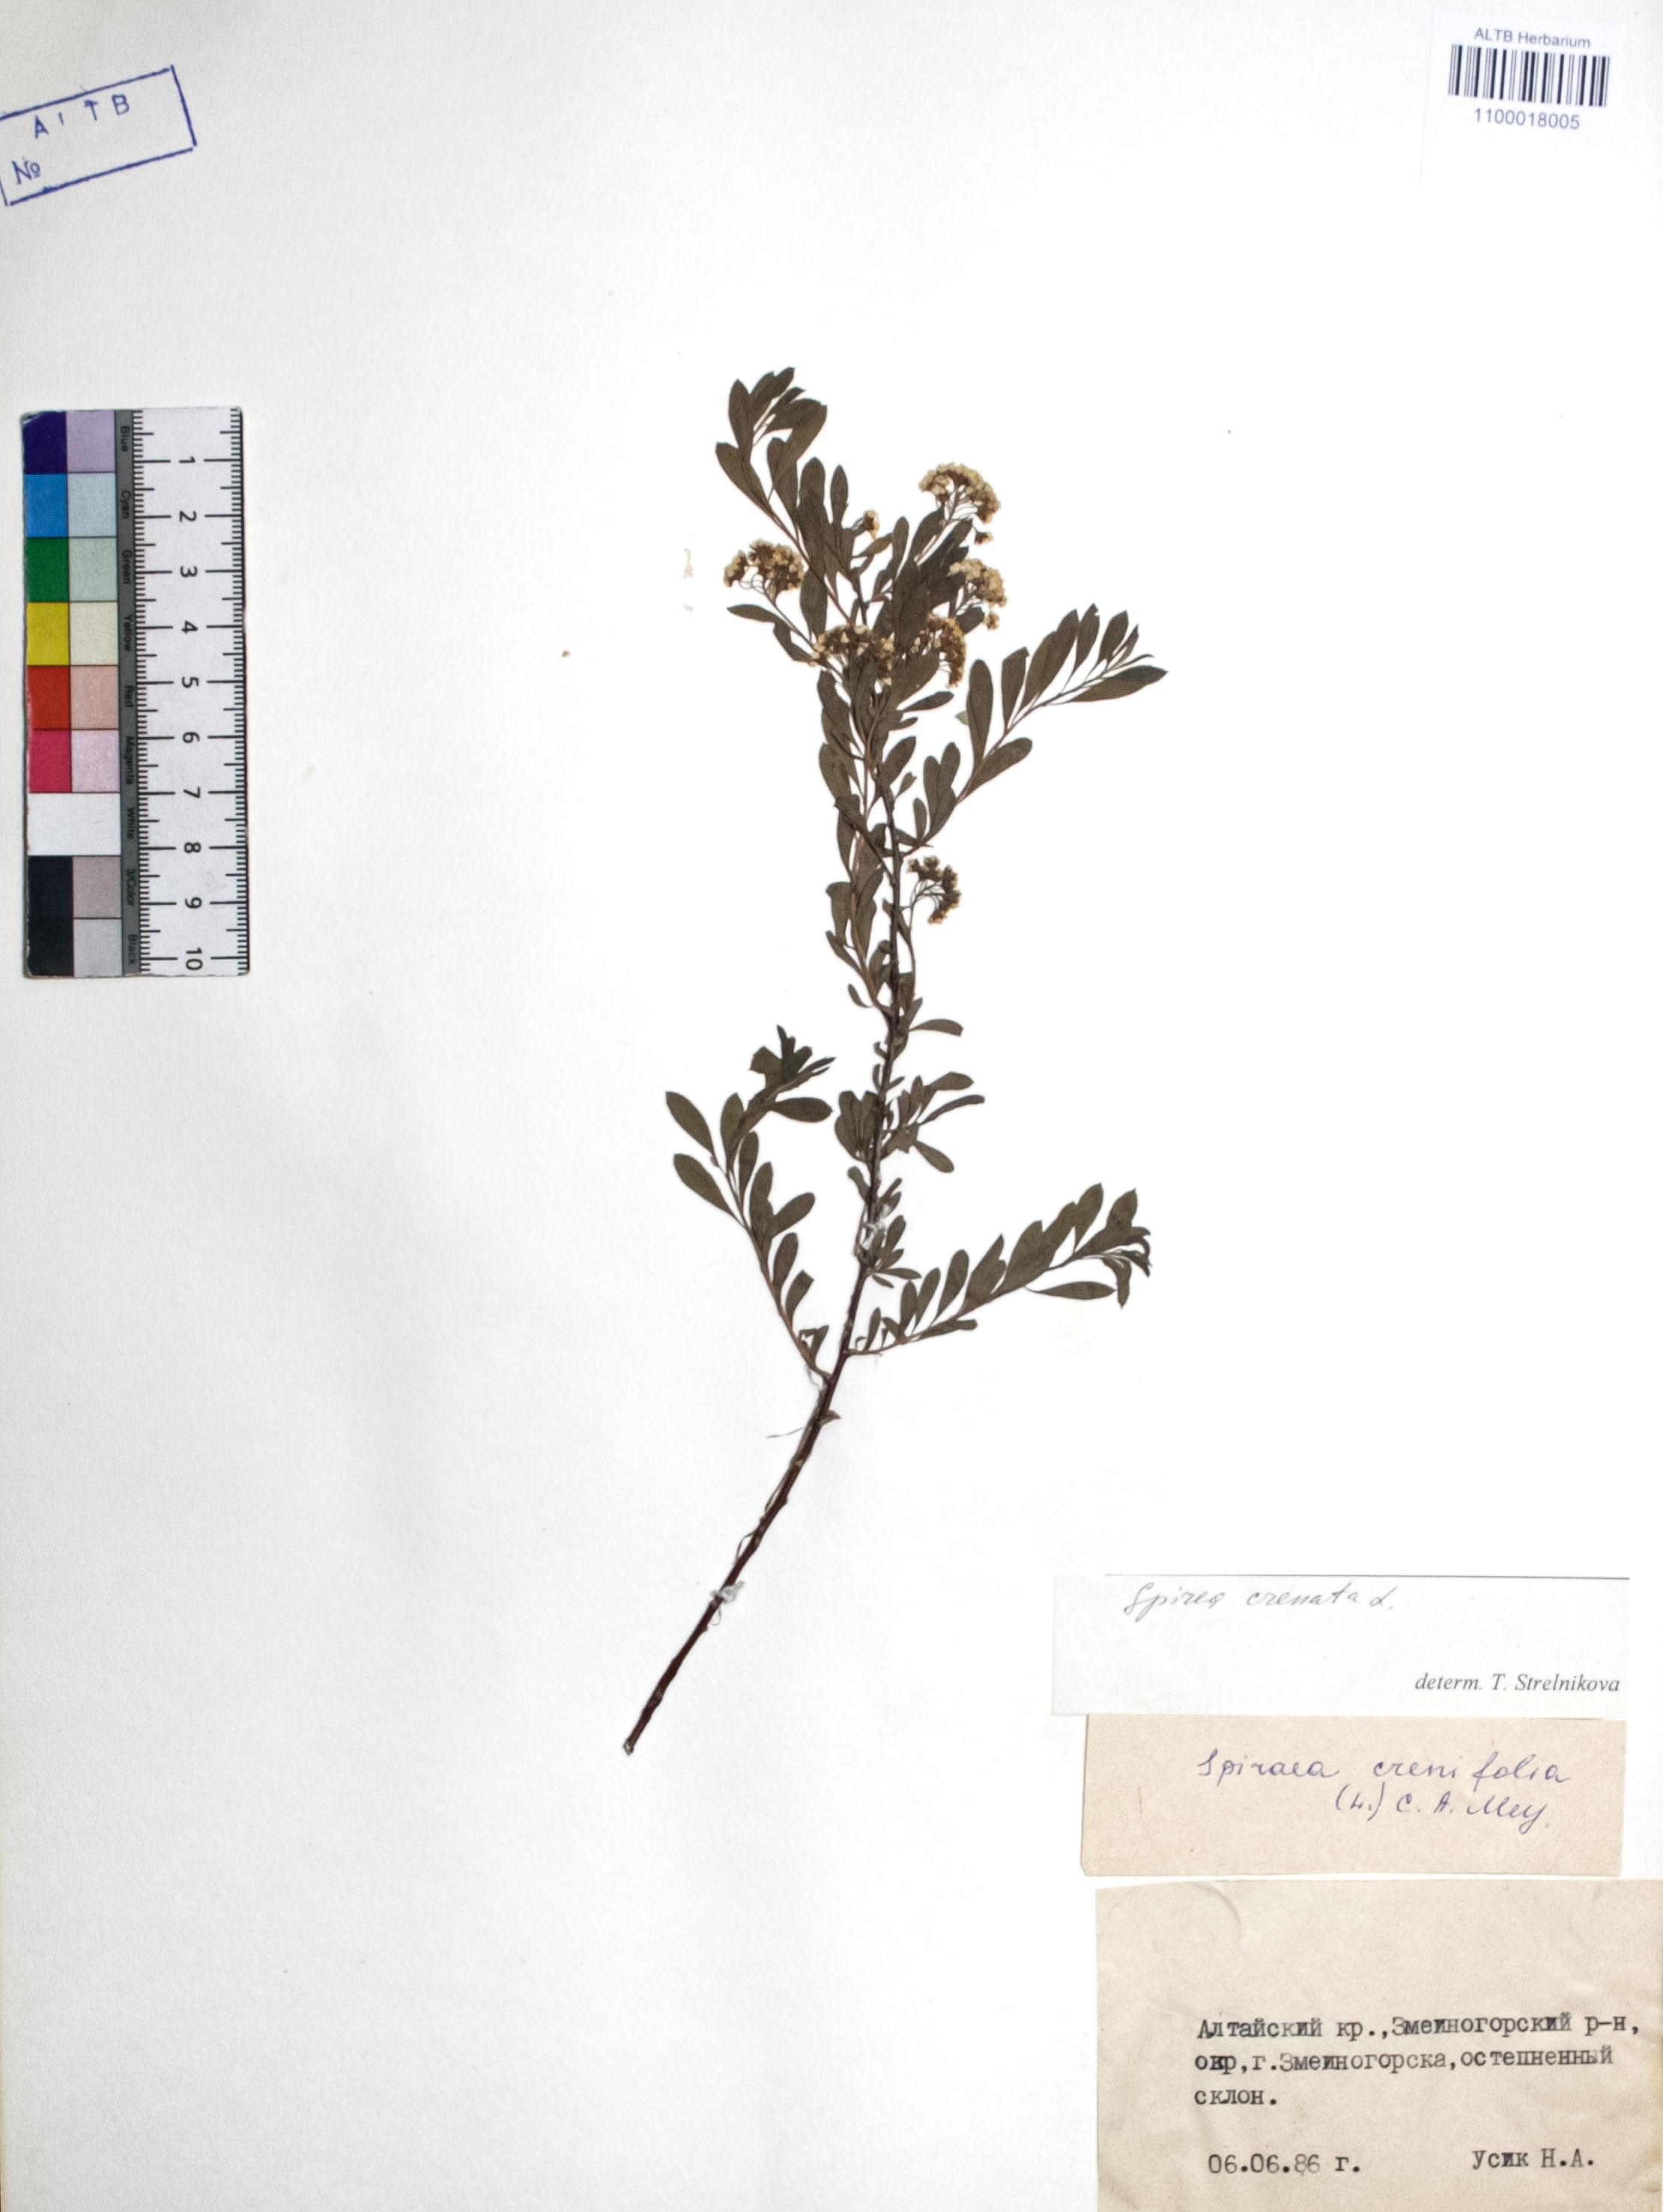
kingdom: Plantae
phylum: Tracheophyta
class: Magnoliopsida
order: Rosales
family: Rosaceae
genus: Spiraea
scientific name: Spiraea crenata
